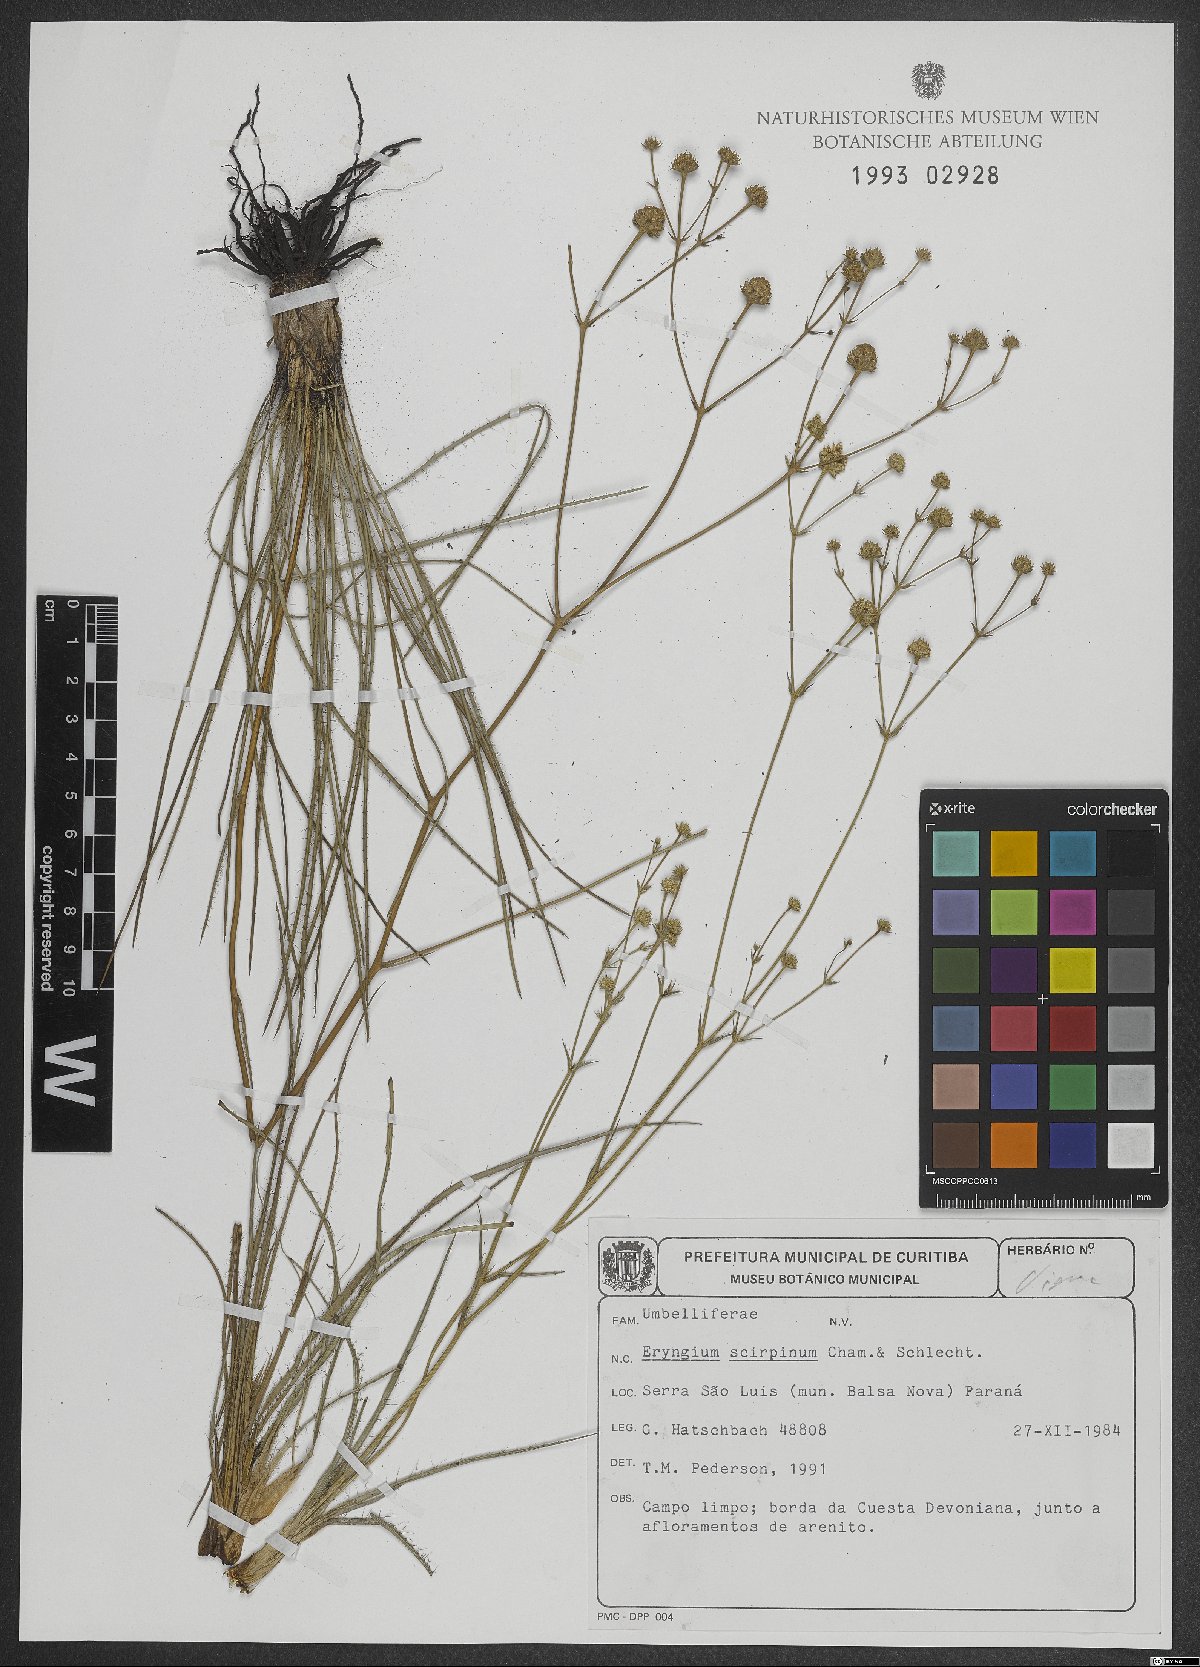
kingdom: Plantae
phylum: Tracheophyta
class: Magnoliopsida
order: Apiales
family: Apiaceae
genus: Eryngium
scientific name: Eryngium scirpinum
